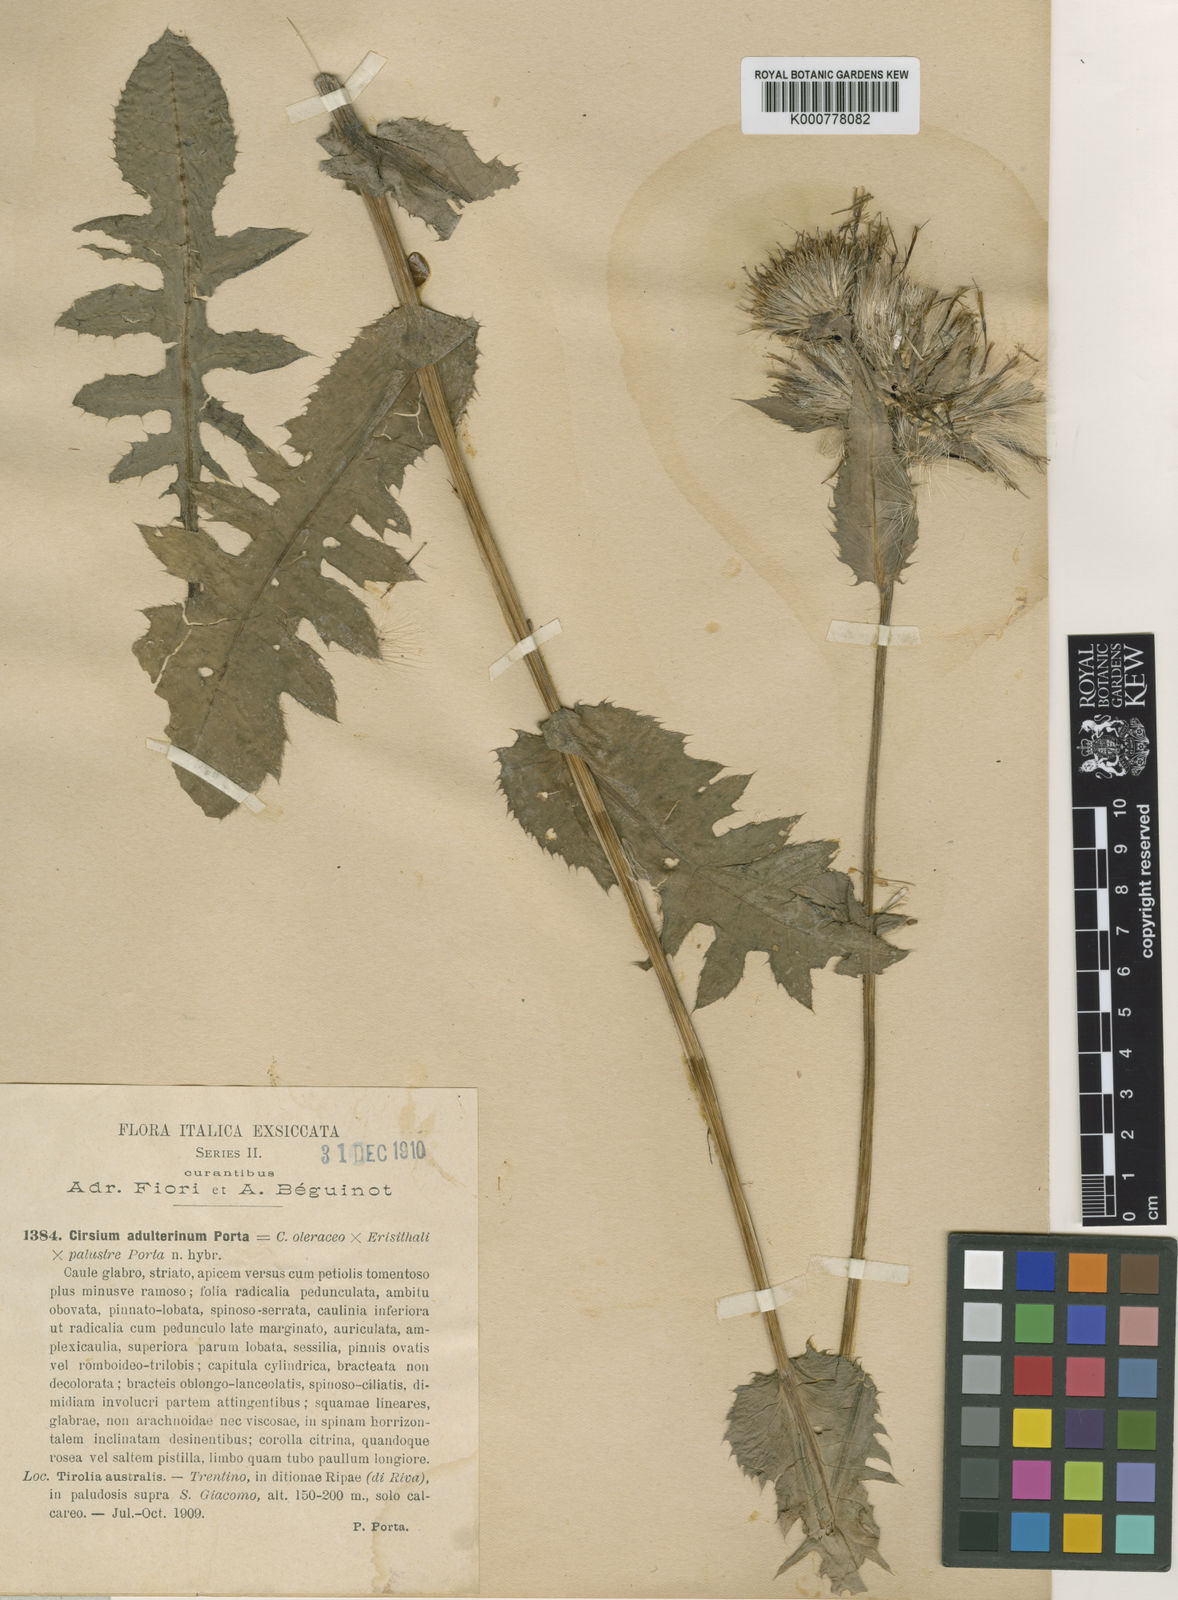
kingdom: Plantae
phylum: Tracheophyta
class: Magnoliopsida
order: Asterales
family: Asteraceae
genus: Cirsium
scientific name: Cirsium oleraceum
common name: Cabbage thistle
